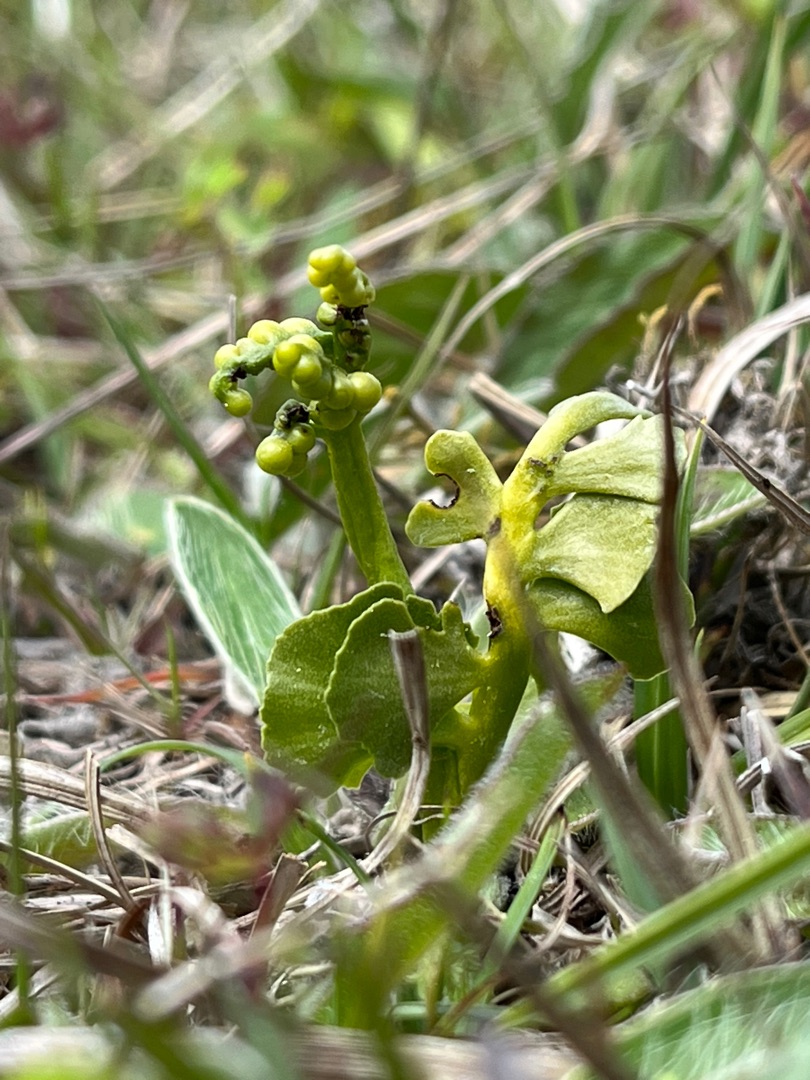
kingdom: Plantae
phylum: Tracheophyta
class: Polypodiopsida
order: Ophioglossales
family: Ophioglossaceae
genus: Botrychium
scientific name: Botrychium lunaria
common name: Almindelig månerude
